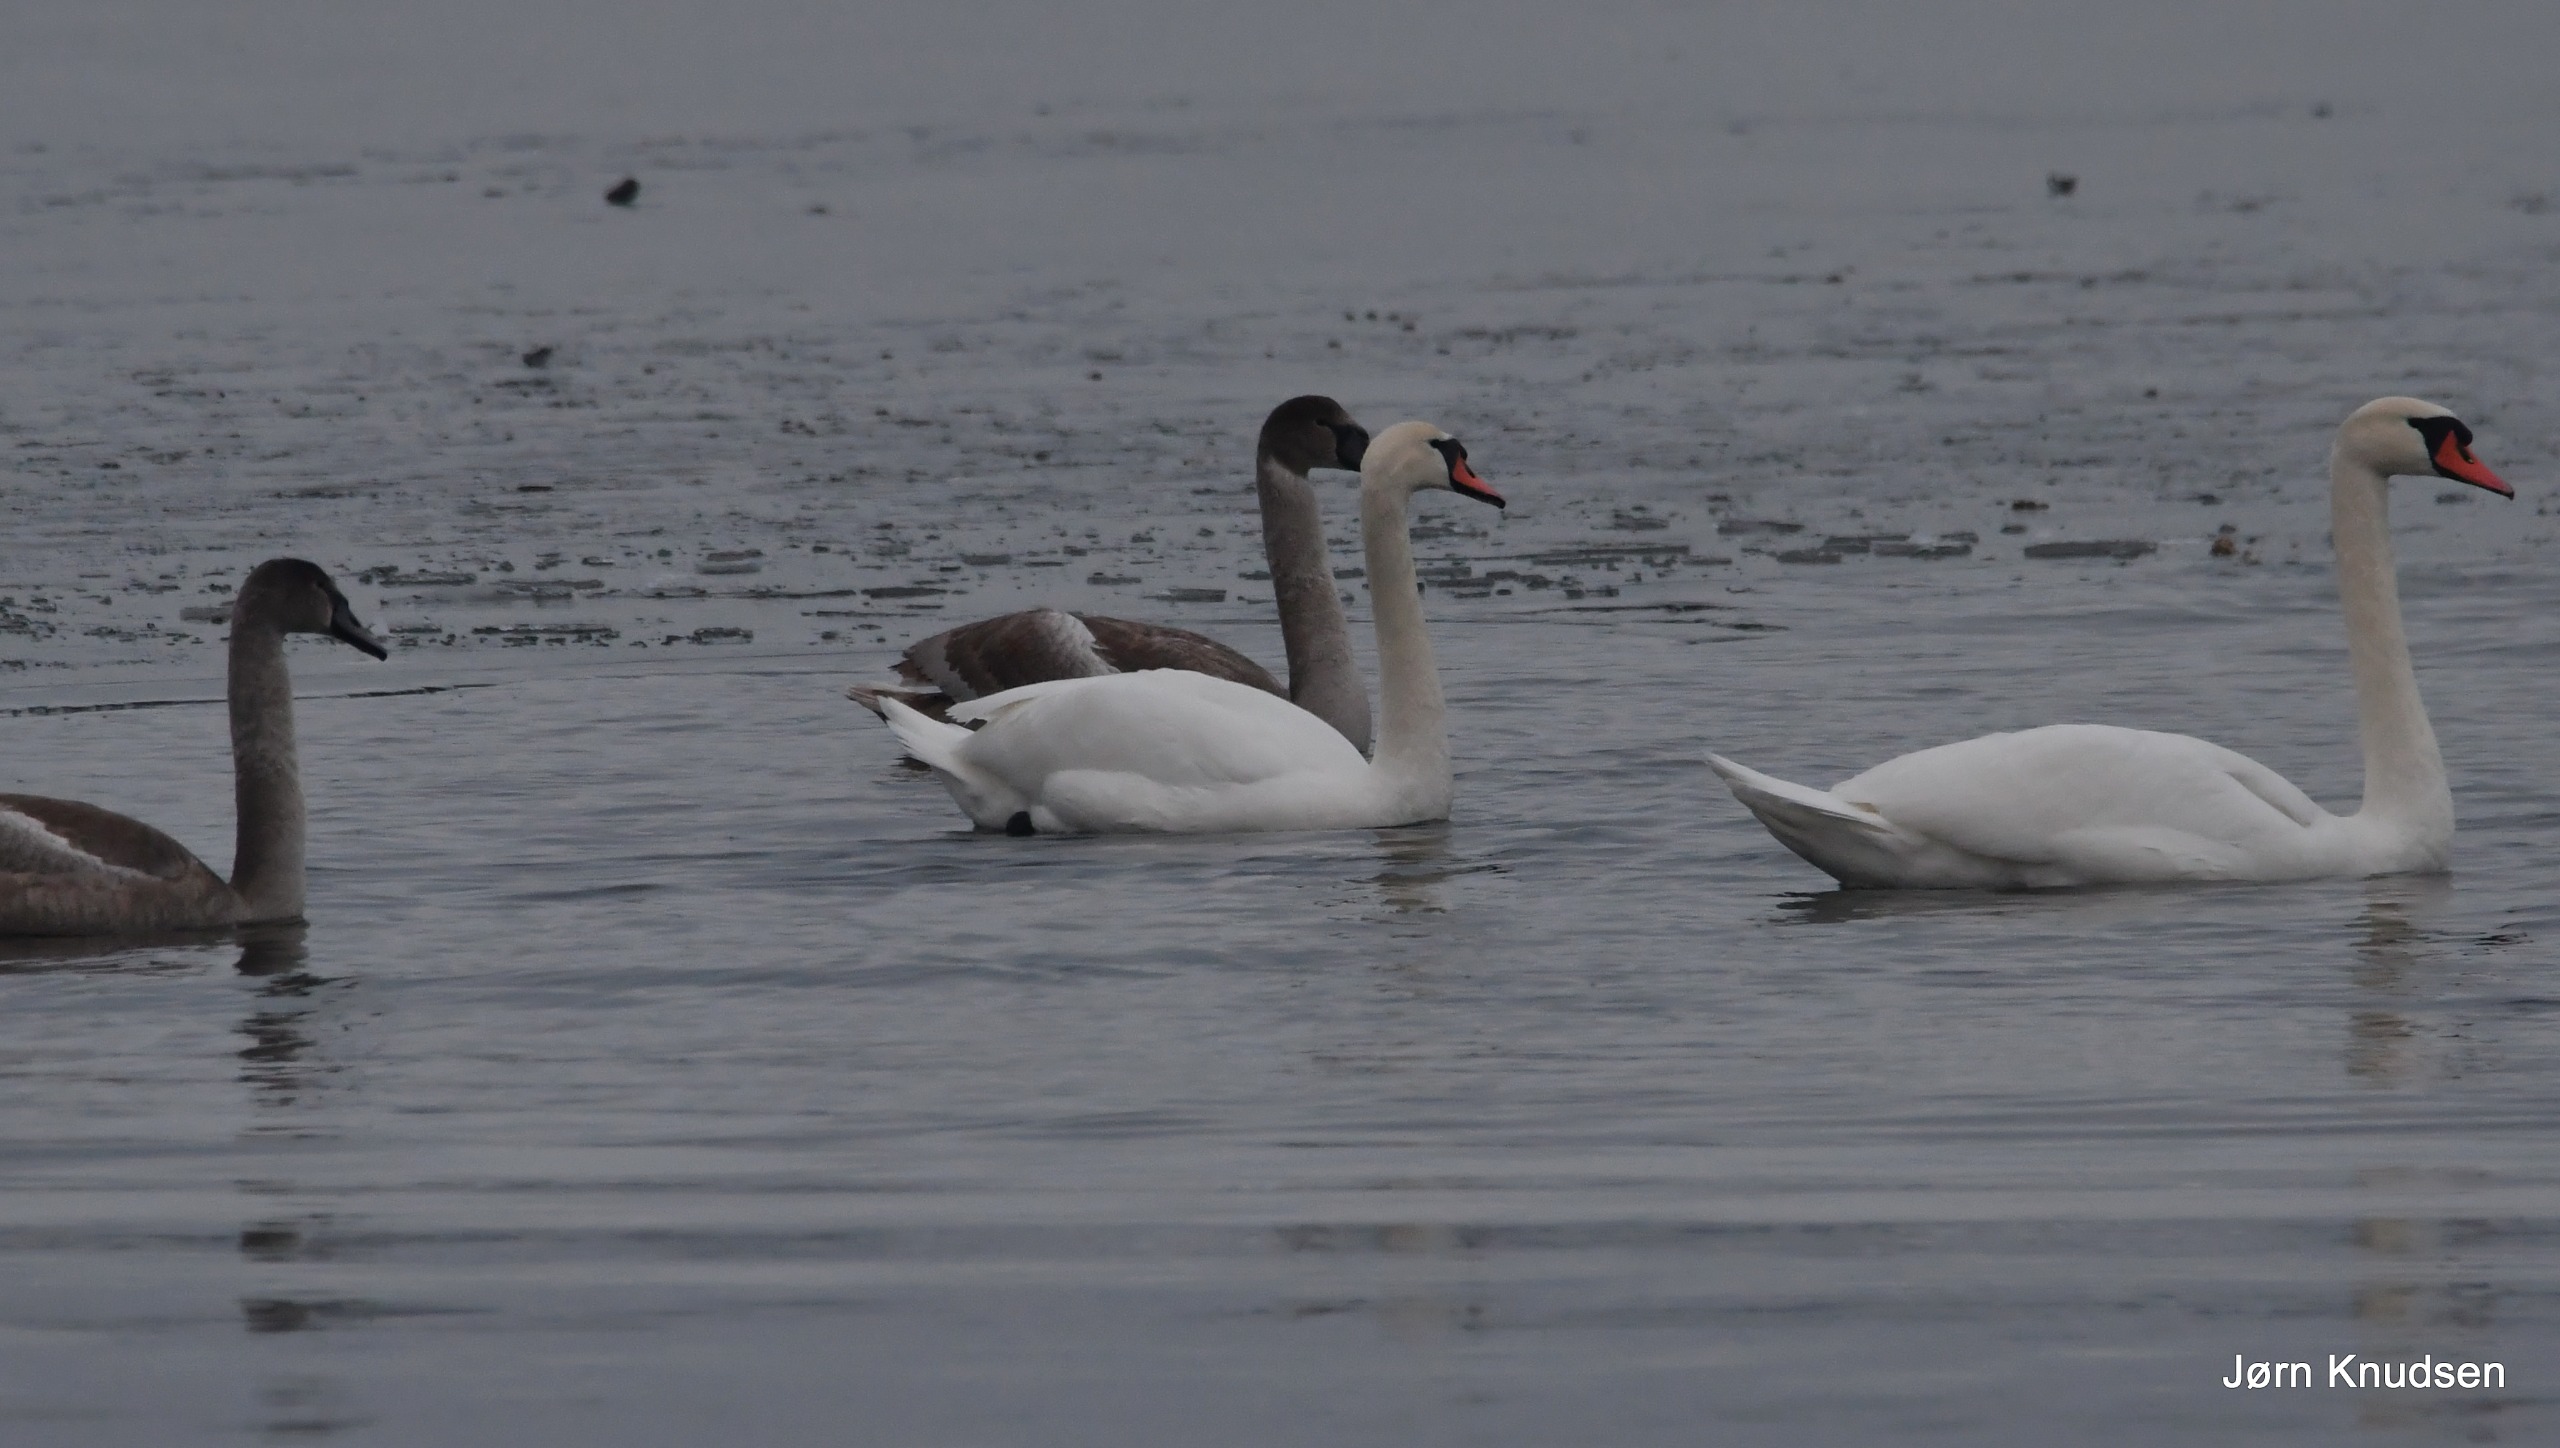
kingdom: Animalia
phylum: Chordata
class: Aves
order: Anseriformes
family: Anatidae
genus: Cygnus
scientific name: Cygnus olor
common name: Knopsvane
